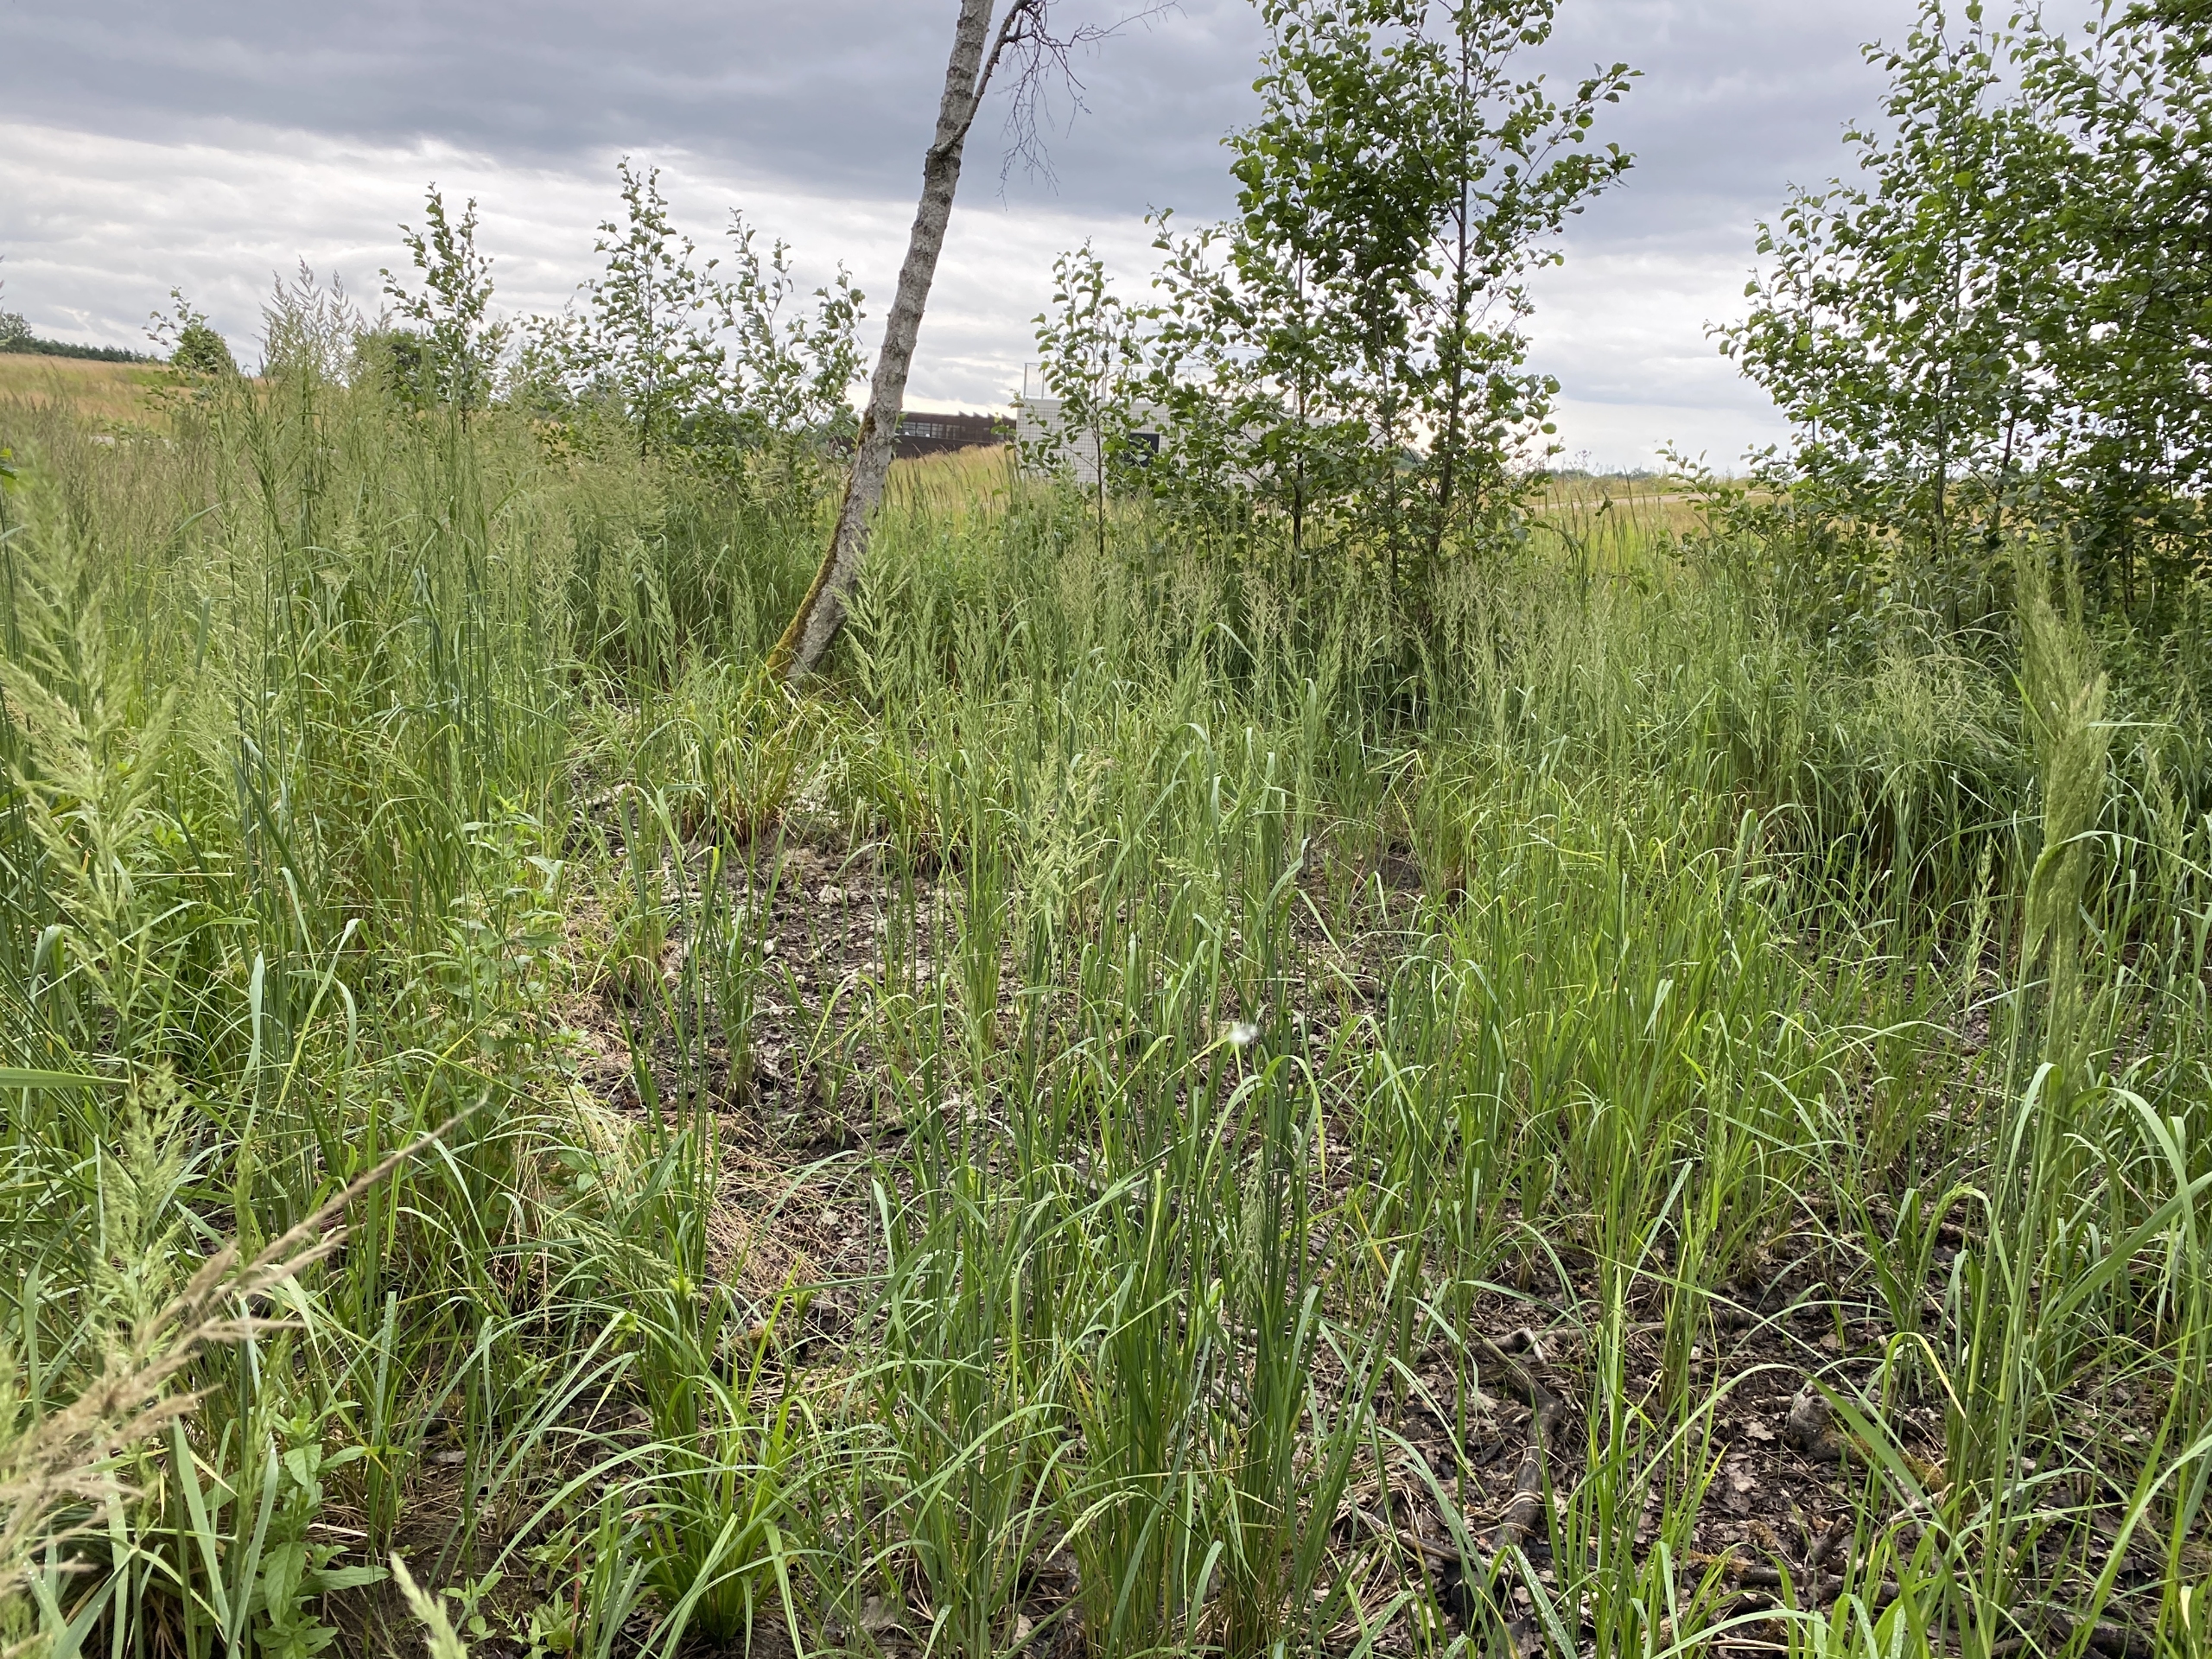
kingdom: Plantae
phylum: Tracheophyta
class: Liliopsida
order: Poales
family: Poaceae
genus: Calamagrostis
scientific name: Calamagrostis epigejos
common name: Bjerg-rørhvene
